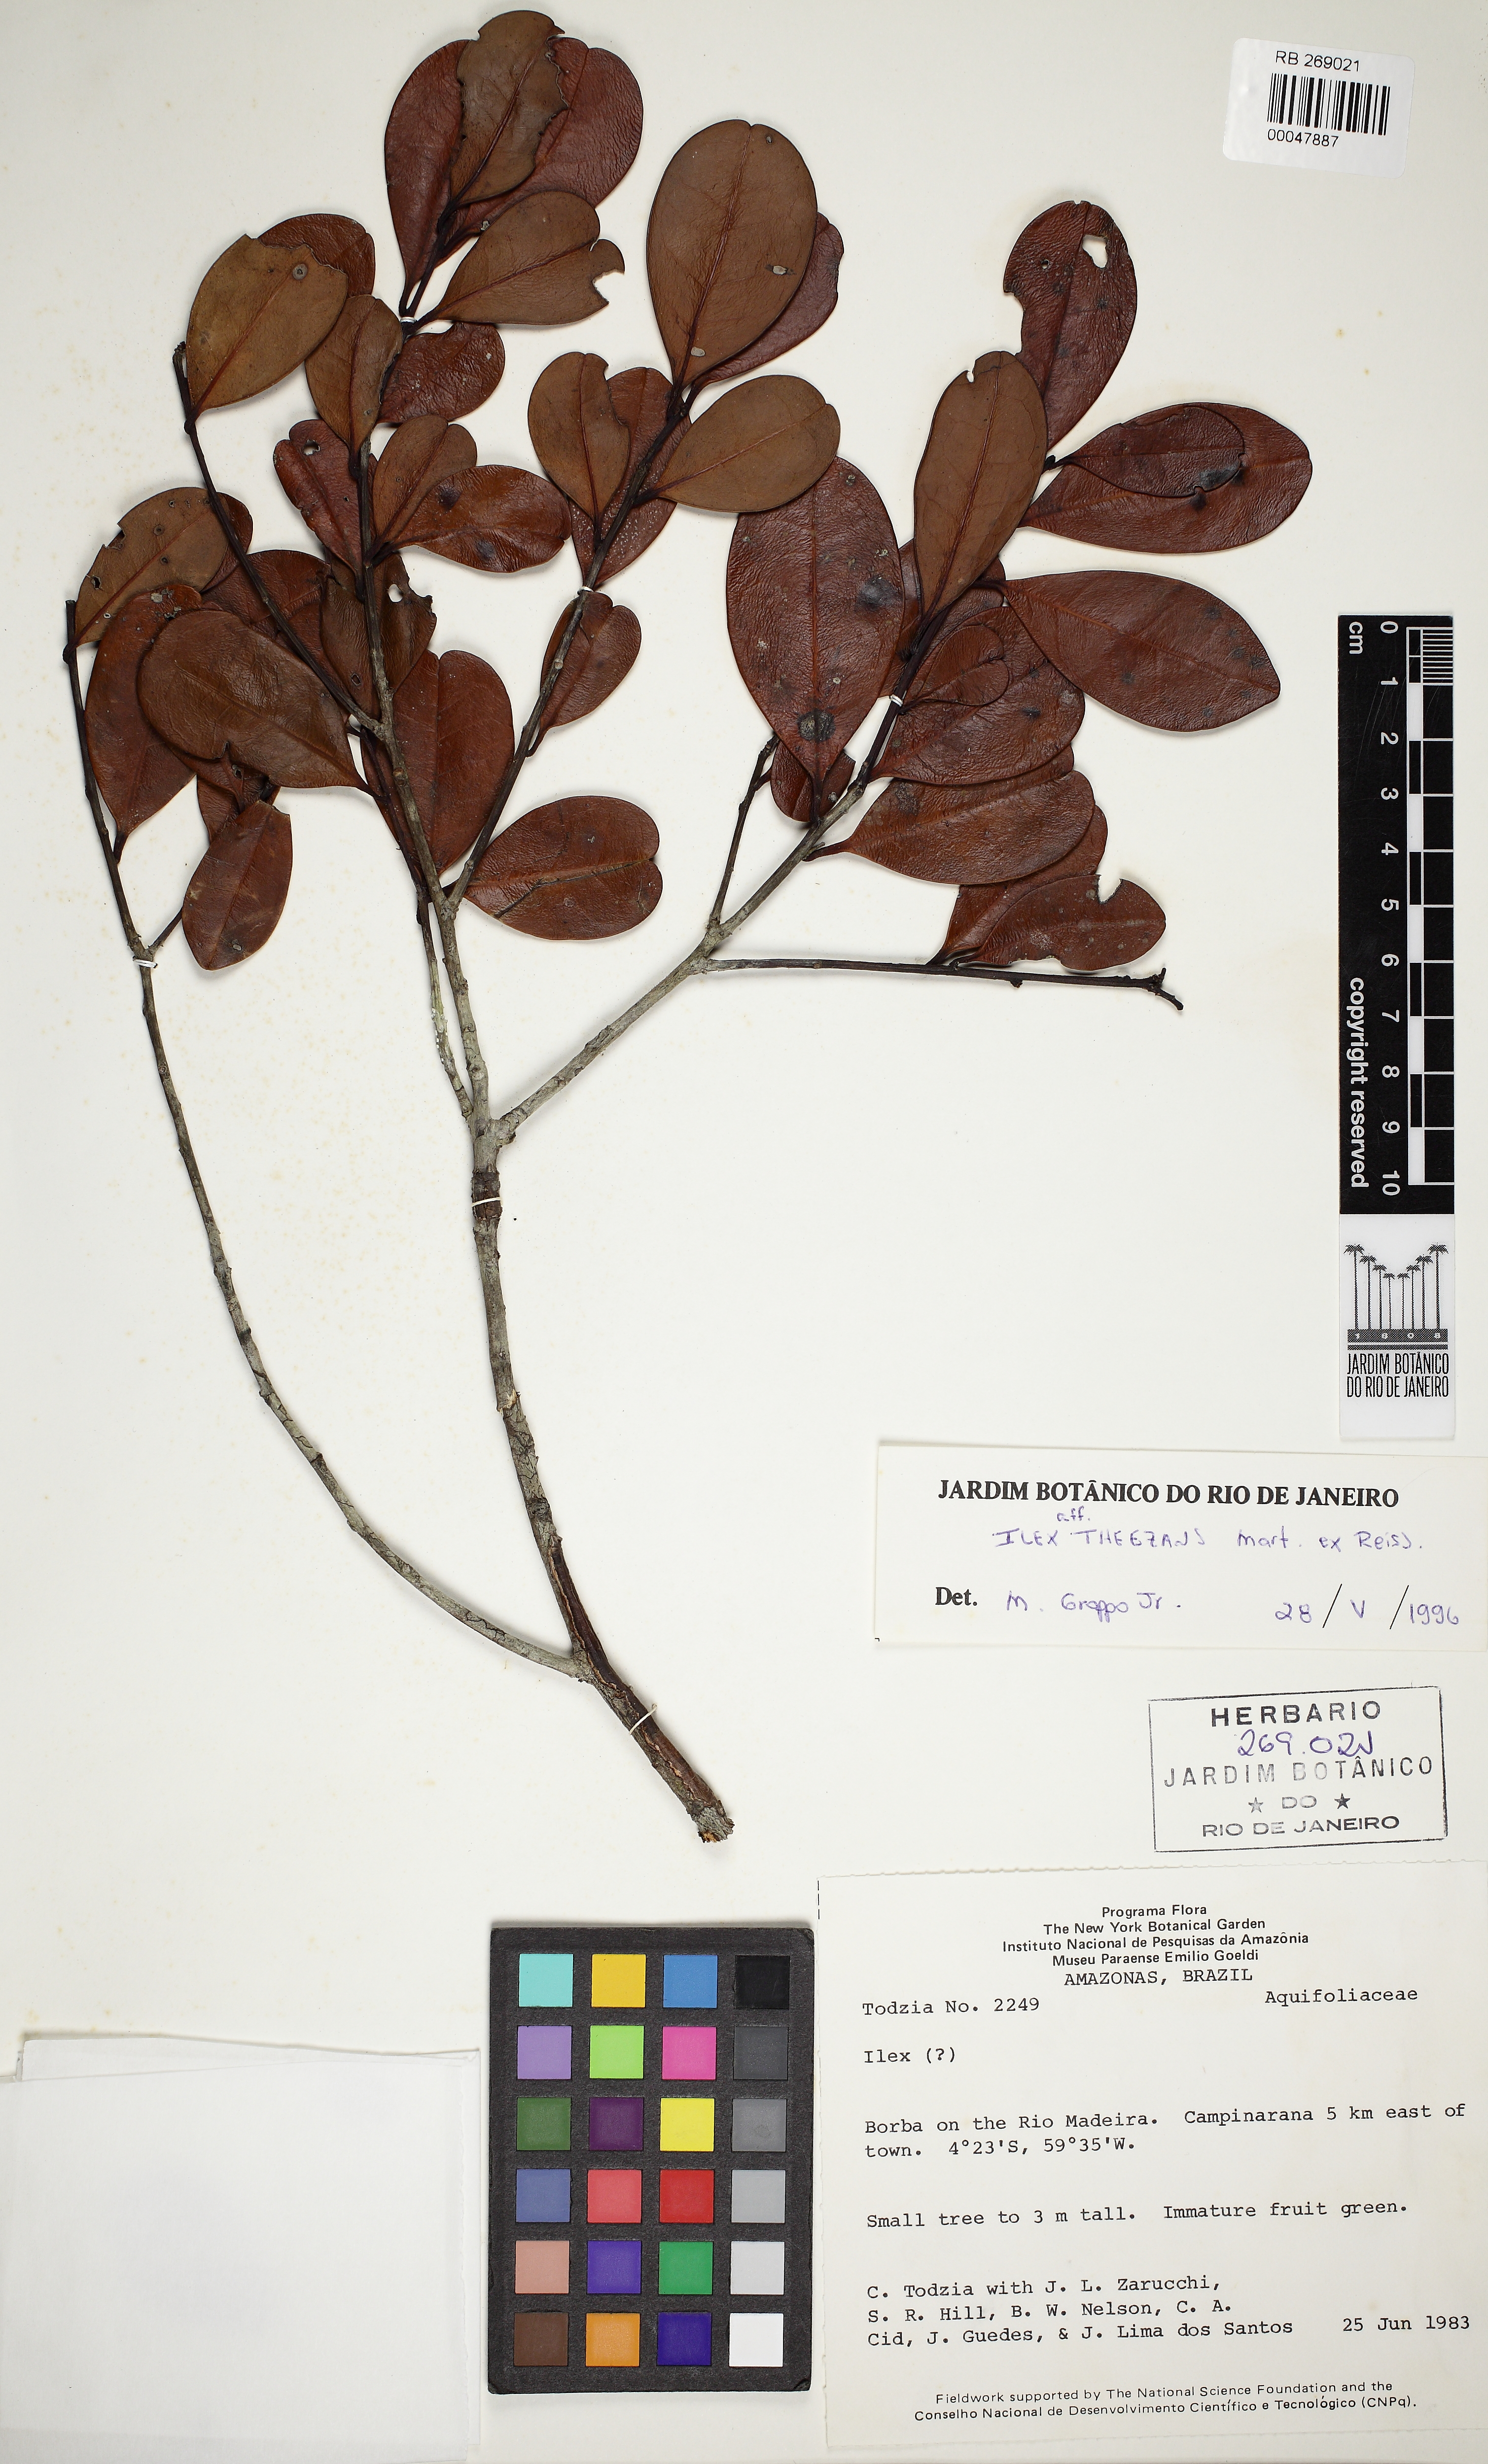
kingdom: Plantae
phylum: Tracheophyta
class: Magnoliopsida
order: Aquifoliales
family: Aquifoliaceae
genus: Ilex
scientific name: Ilex theezans
